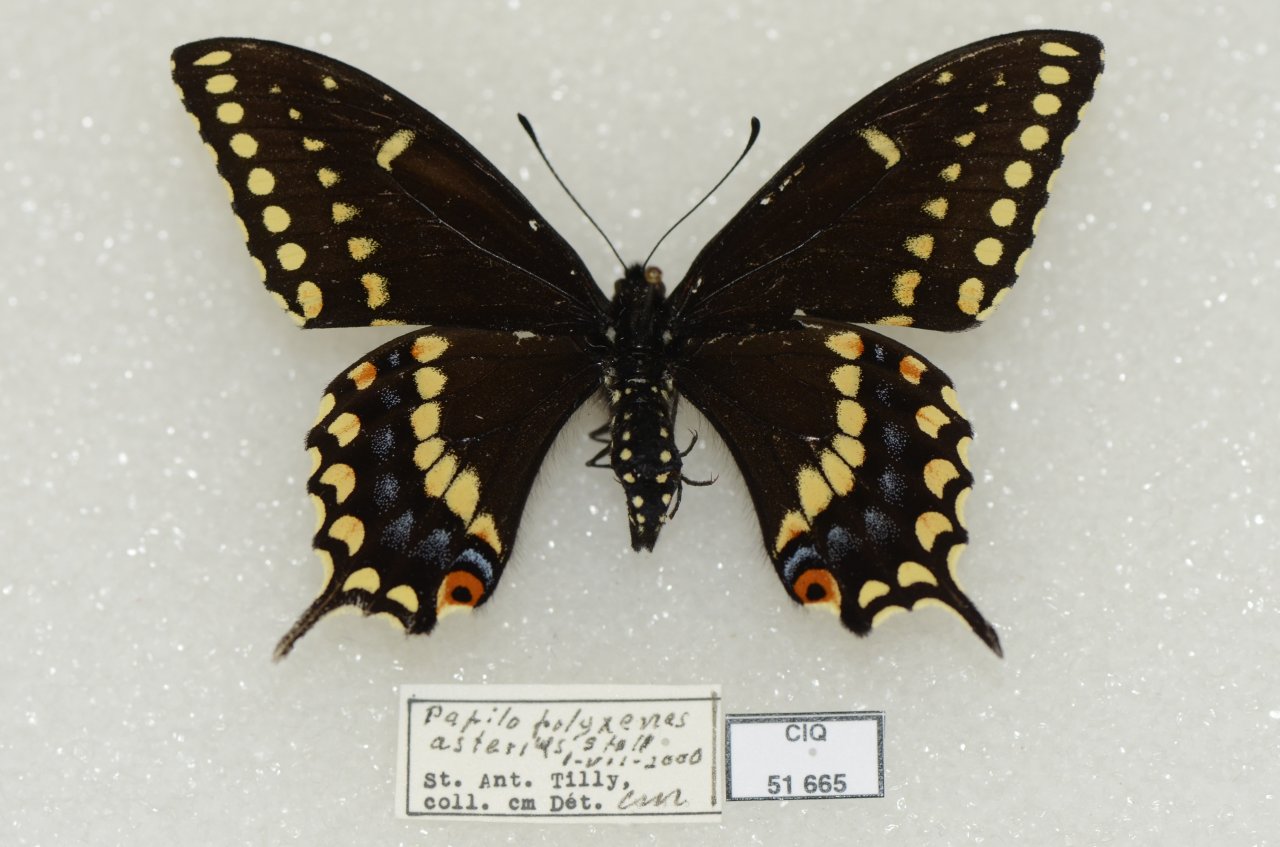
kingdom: Animalia
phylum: Arthropoda
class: Insecta
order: Lepidoptera
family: Papilionidae
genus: Papilio
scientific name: Papilio polyxenes
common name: Black Swallowtail
